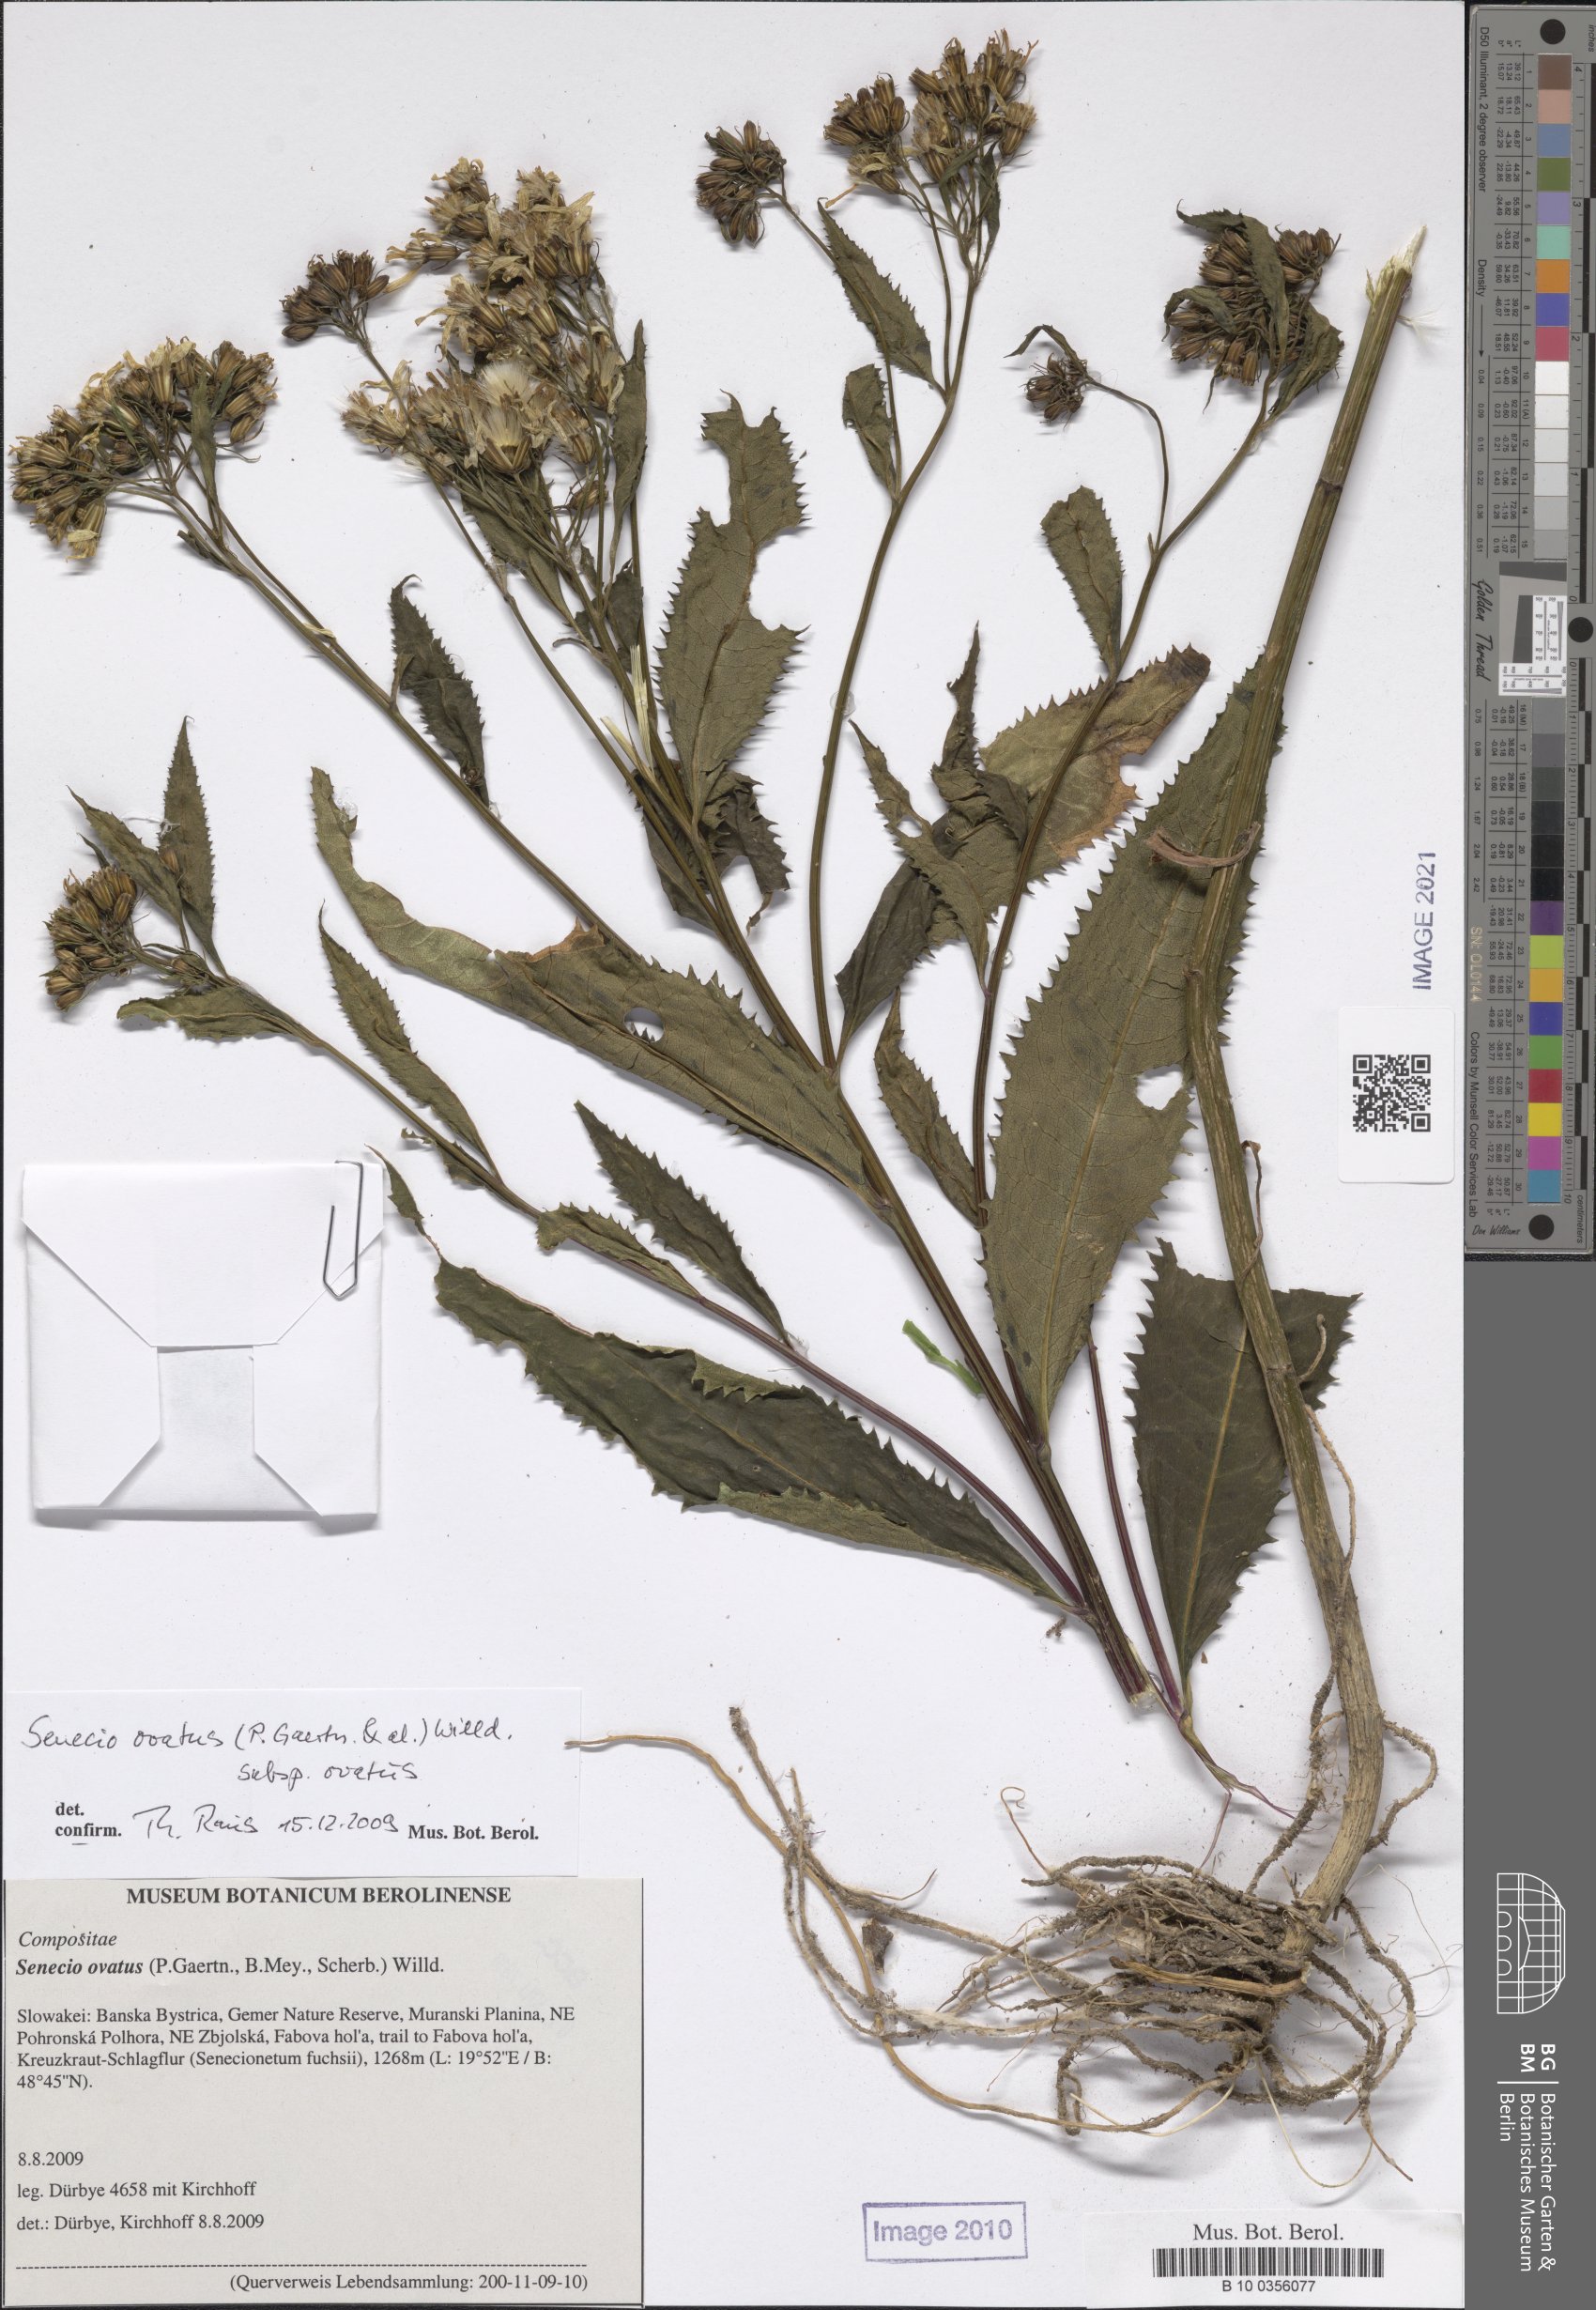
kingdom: Plantae
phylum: Tracheophyta
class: Magnoliopsida
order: Asterales
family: Asteraceae
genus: Senecio
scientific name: Senecio ovatus
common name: Wood ragwort
